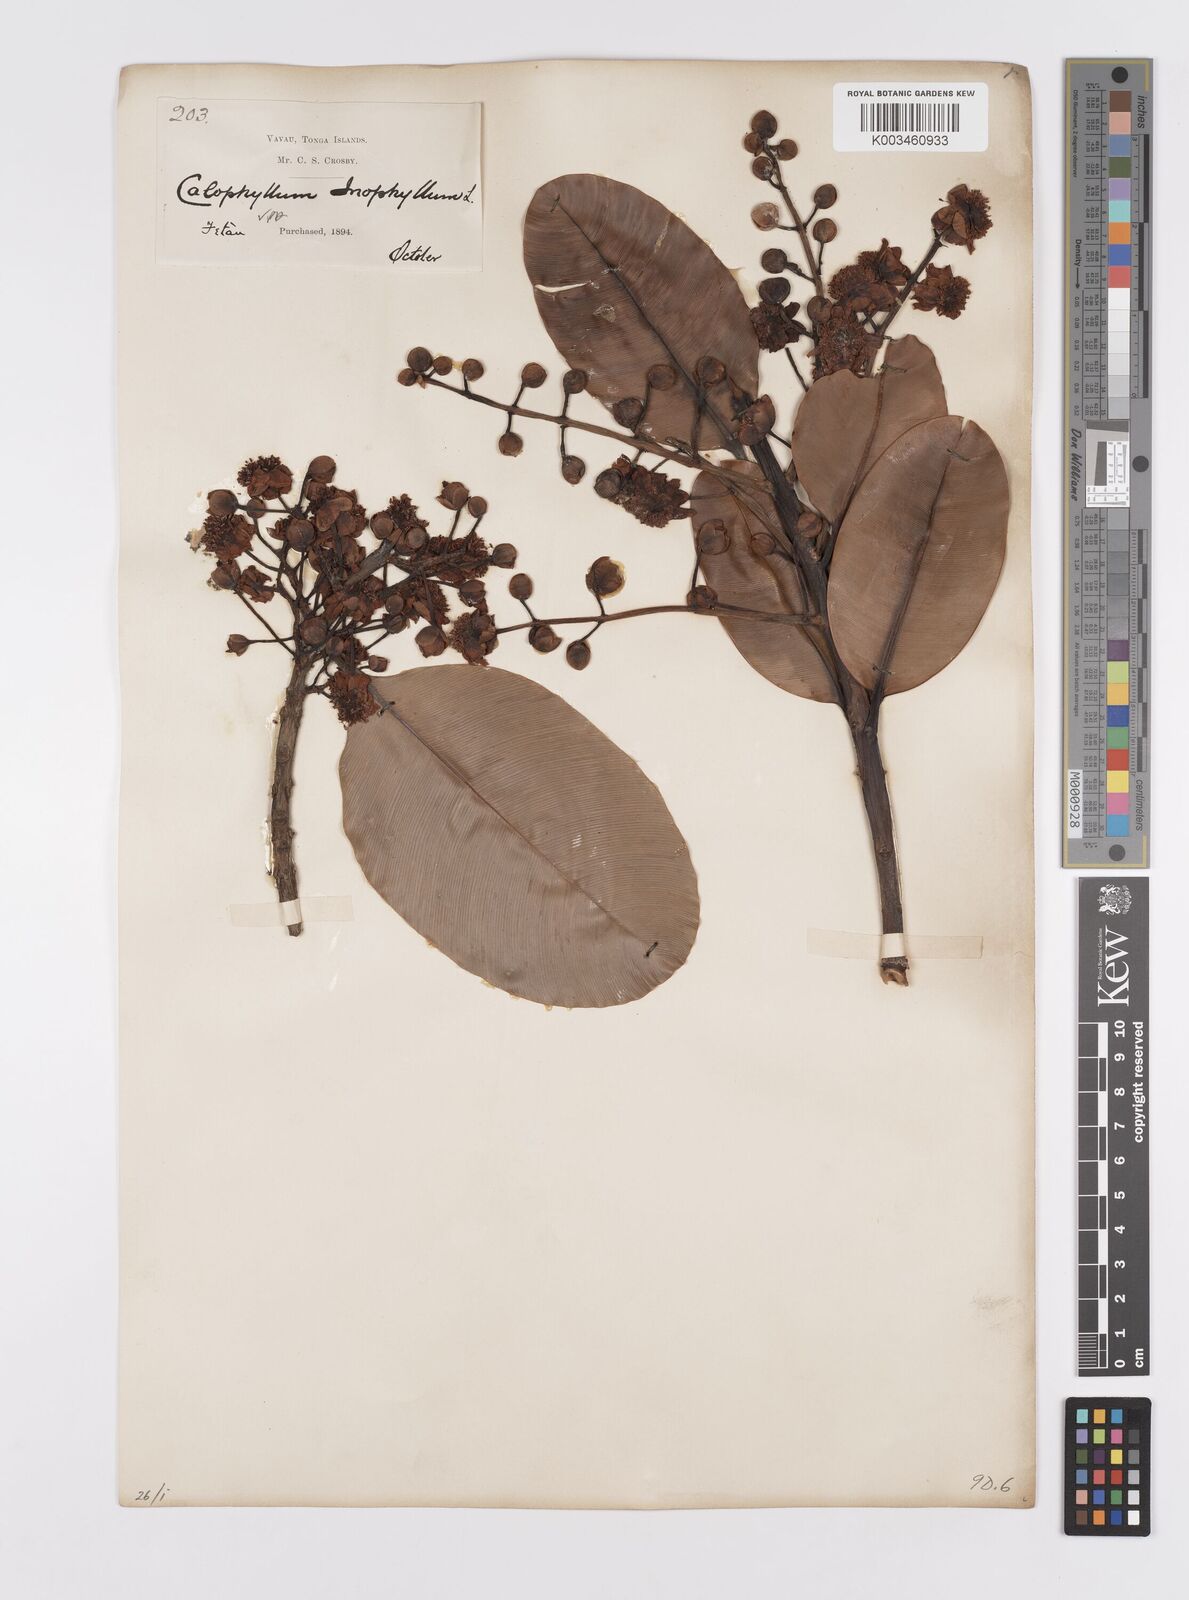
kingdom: Plantae
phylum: Tracheophyta
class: Magnoliopsida
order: Malpighiales
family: Calophyllaceae
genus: Calophyllum
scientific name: Calophyllum inophyllum
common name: Alexandrian laurel
